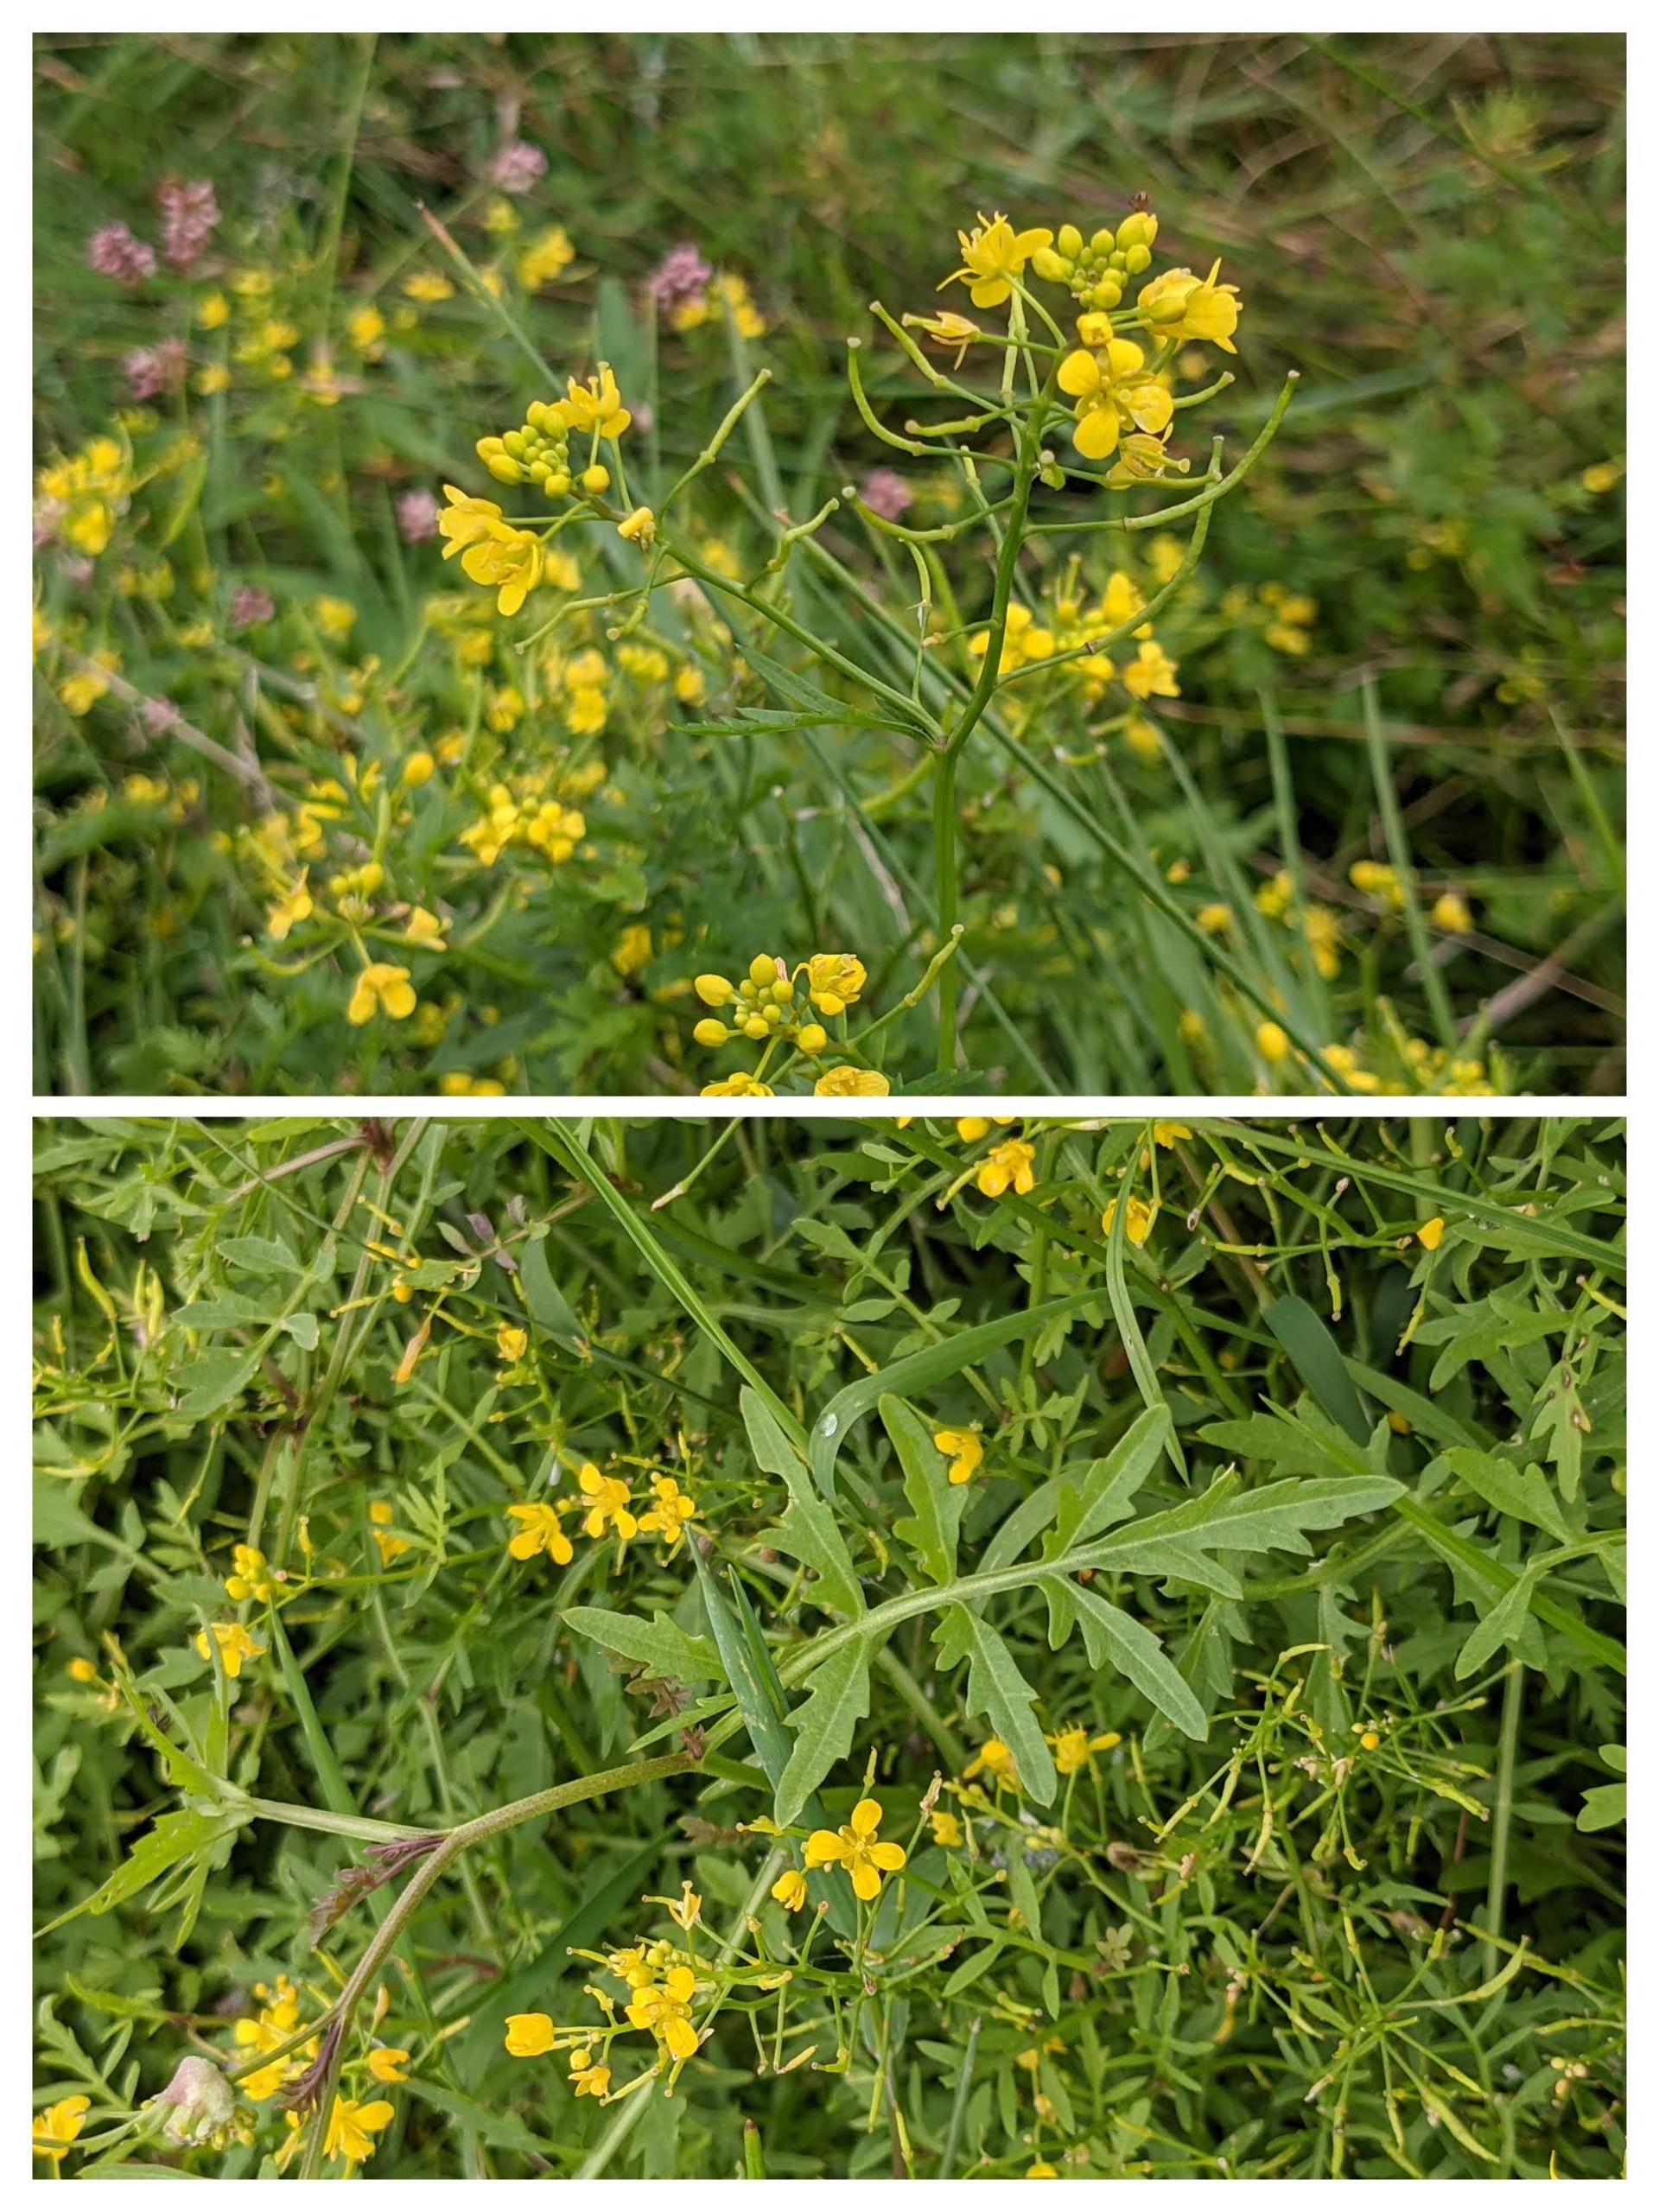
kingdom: Plantae
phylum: Tracheophyta
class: Magnoliopsida
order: Brassicales
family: Brassicaceae
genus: Rorippa
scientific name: Rorippa sylvestris
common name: Vej-guldkarse
